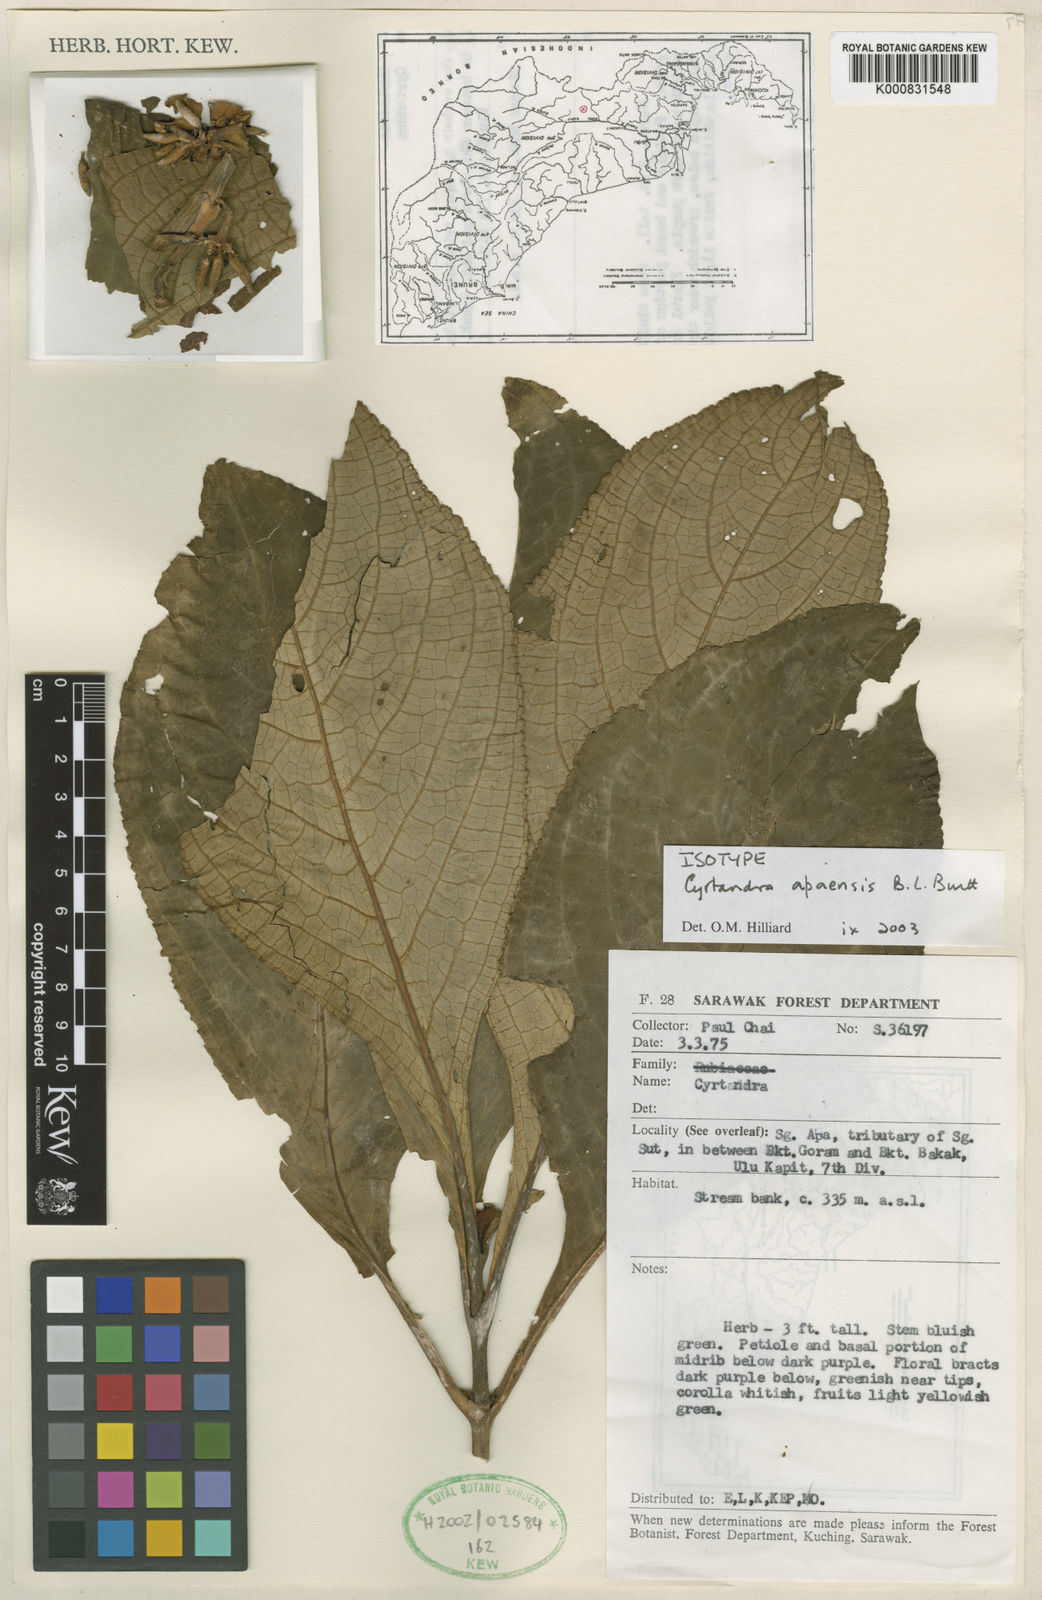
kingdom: Plantae
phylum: Tracheophyta
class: Magnoliopsida
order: Lamiales
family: Gesneriaceae
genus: Cyrtandra
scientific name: Cyrtandra apaensis
